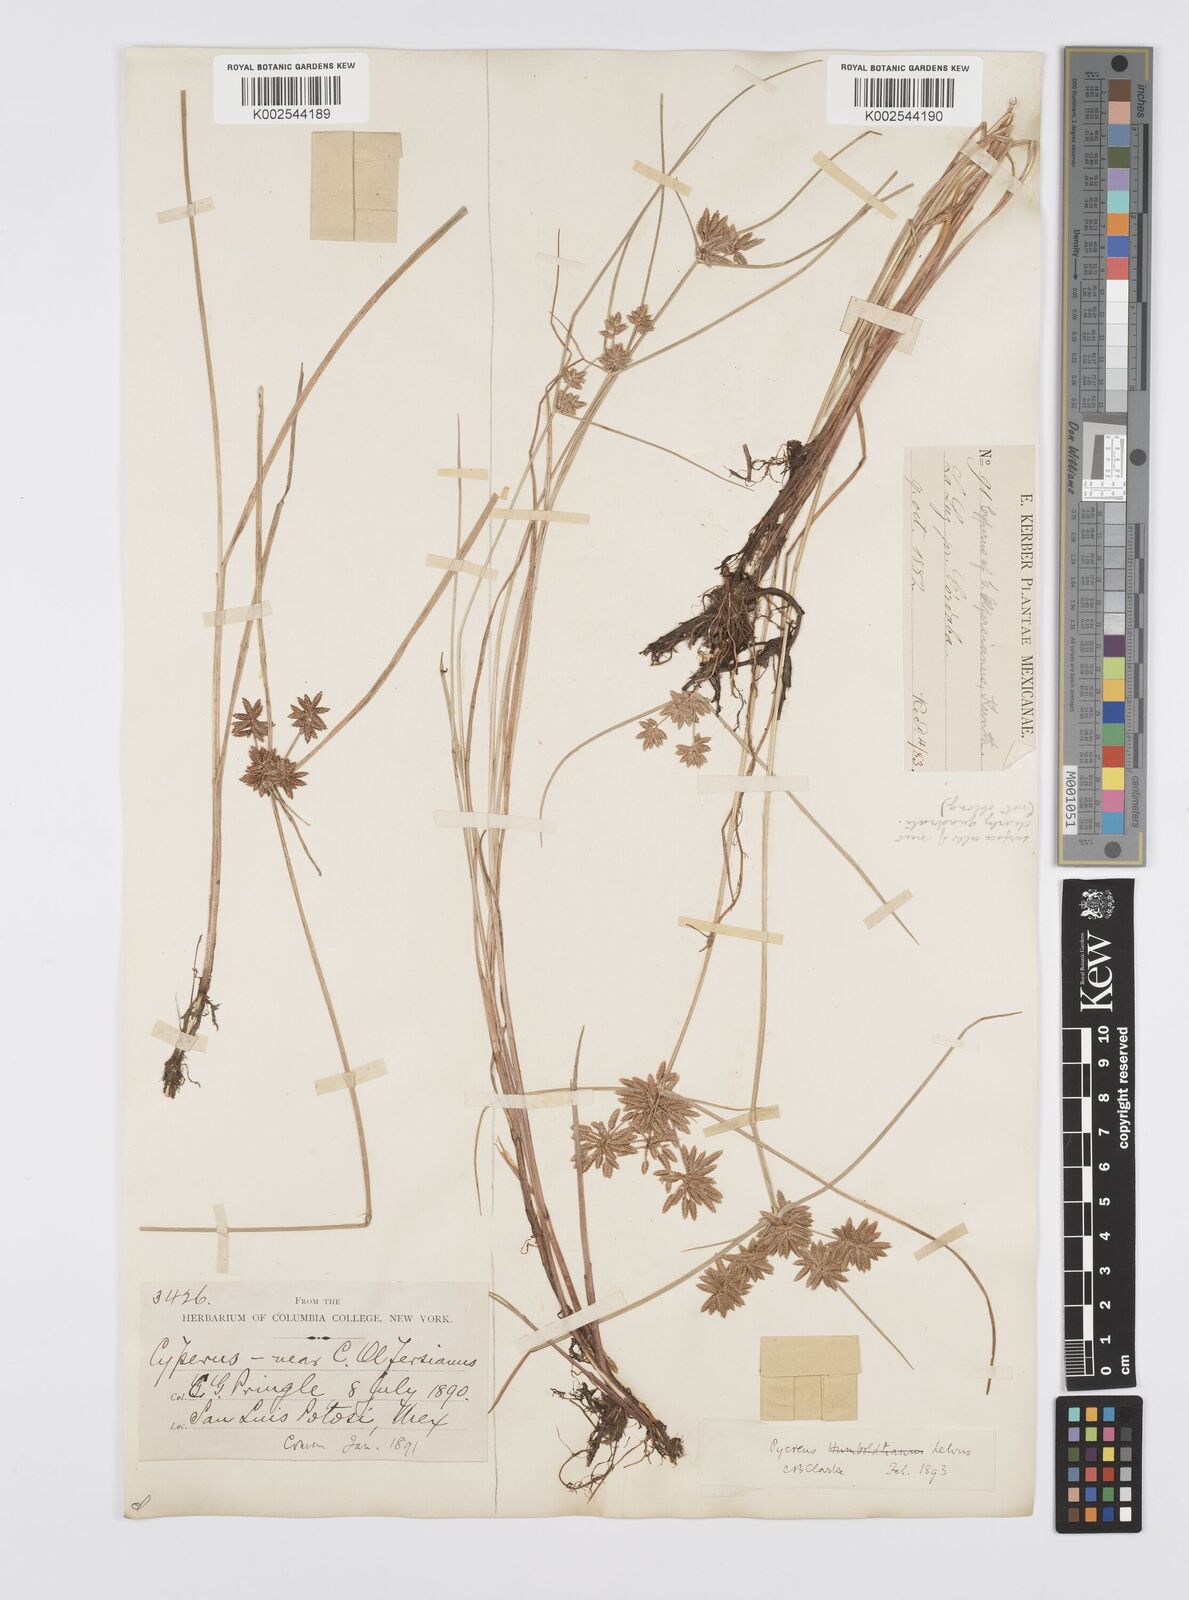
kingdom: Plantae
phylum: Tracheophyta
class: Liliopsida
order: Poales
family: Cyperaceae
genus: Cyperus
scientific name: Cyperus
